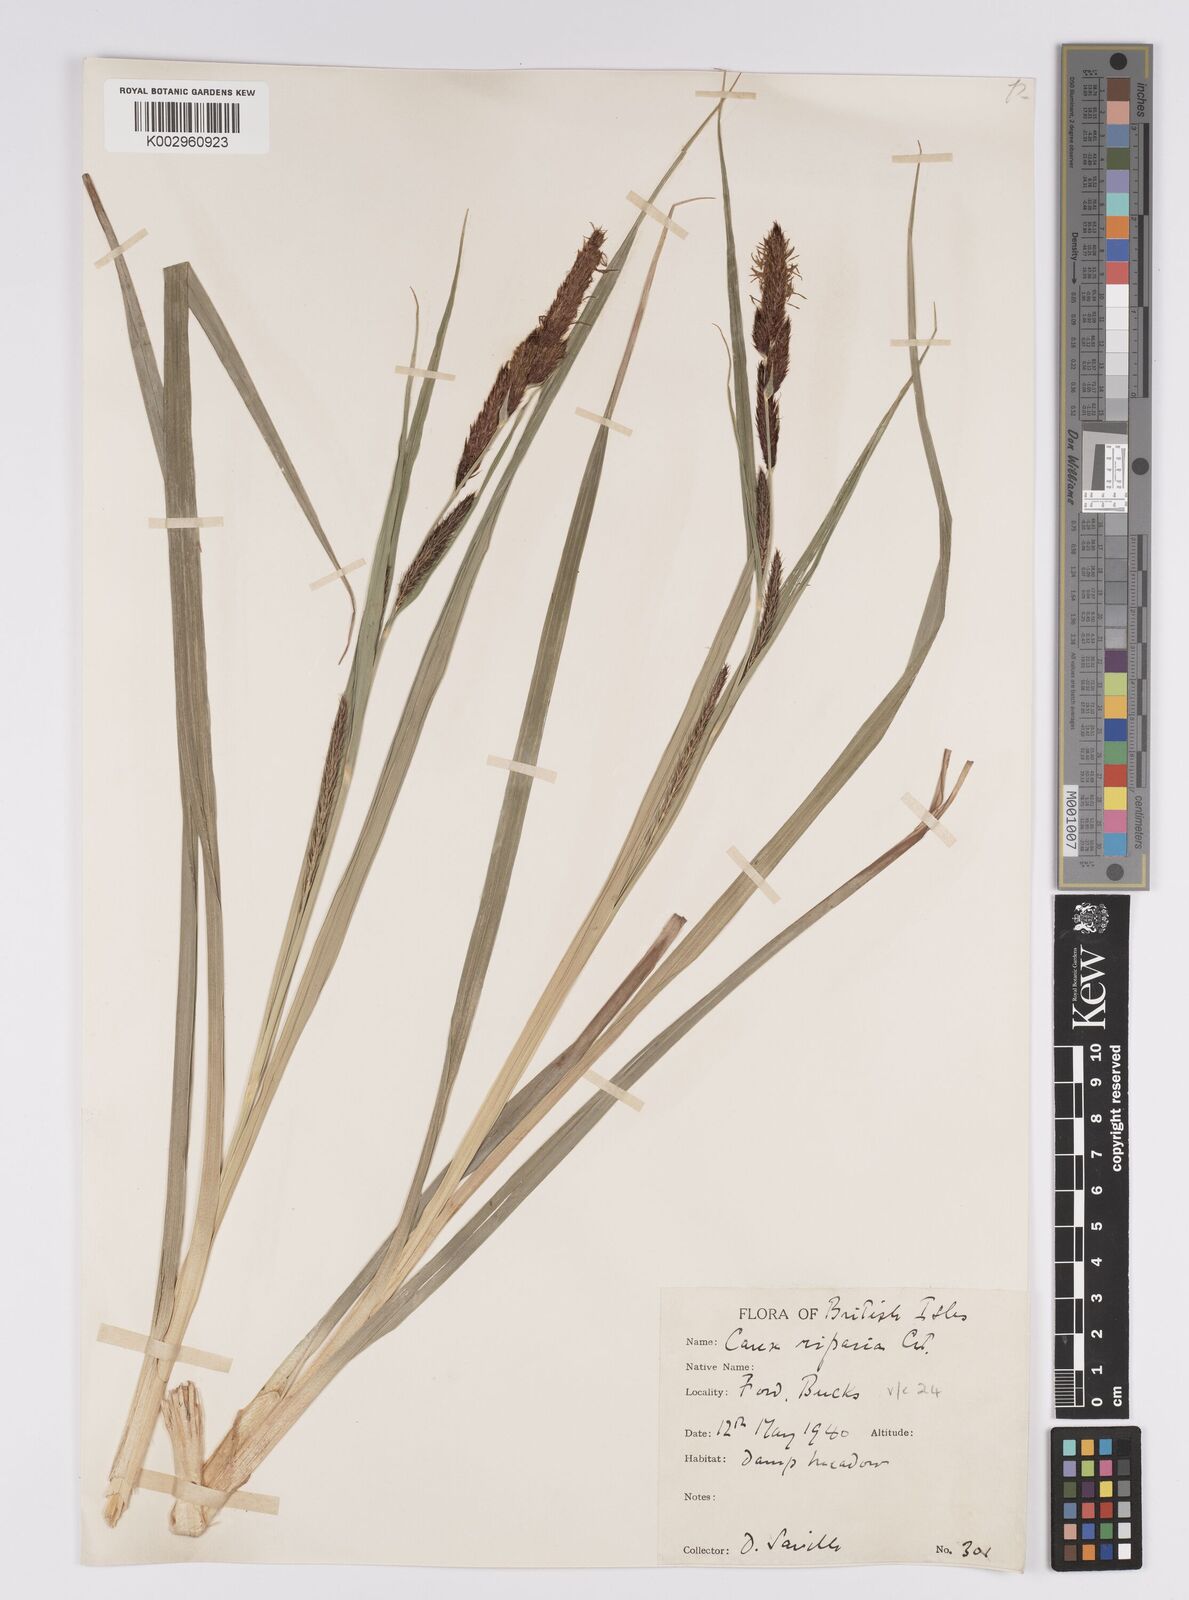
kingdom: Plantae
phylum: Tracheophyta
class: Liliopsida
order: Poales
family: Cyperaceae
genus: Carex
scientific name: Carex riparia
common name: Greater pond-sedge
